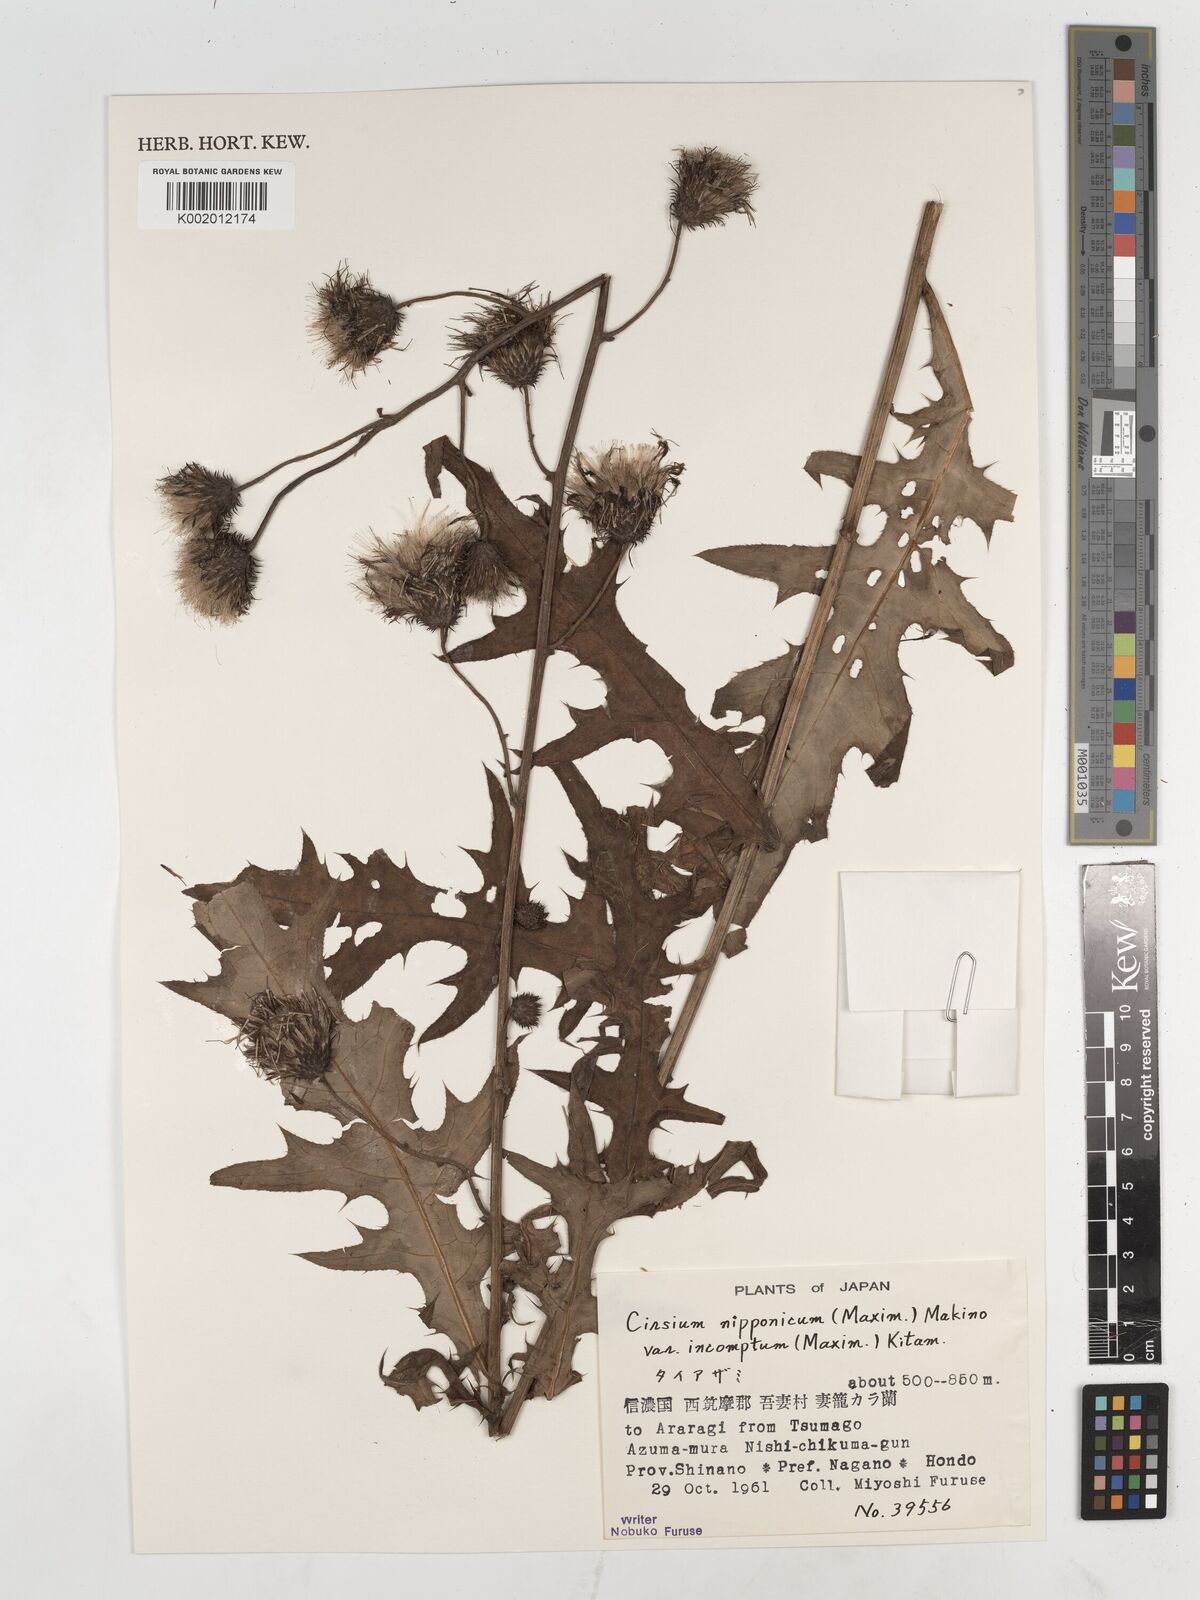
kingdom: Plantae
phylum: Tracheophyta
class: Magnoliopsida
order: Asterales
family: Asteraceae
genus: Cirsium
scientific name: Cirsium nipponicum
